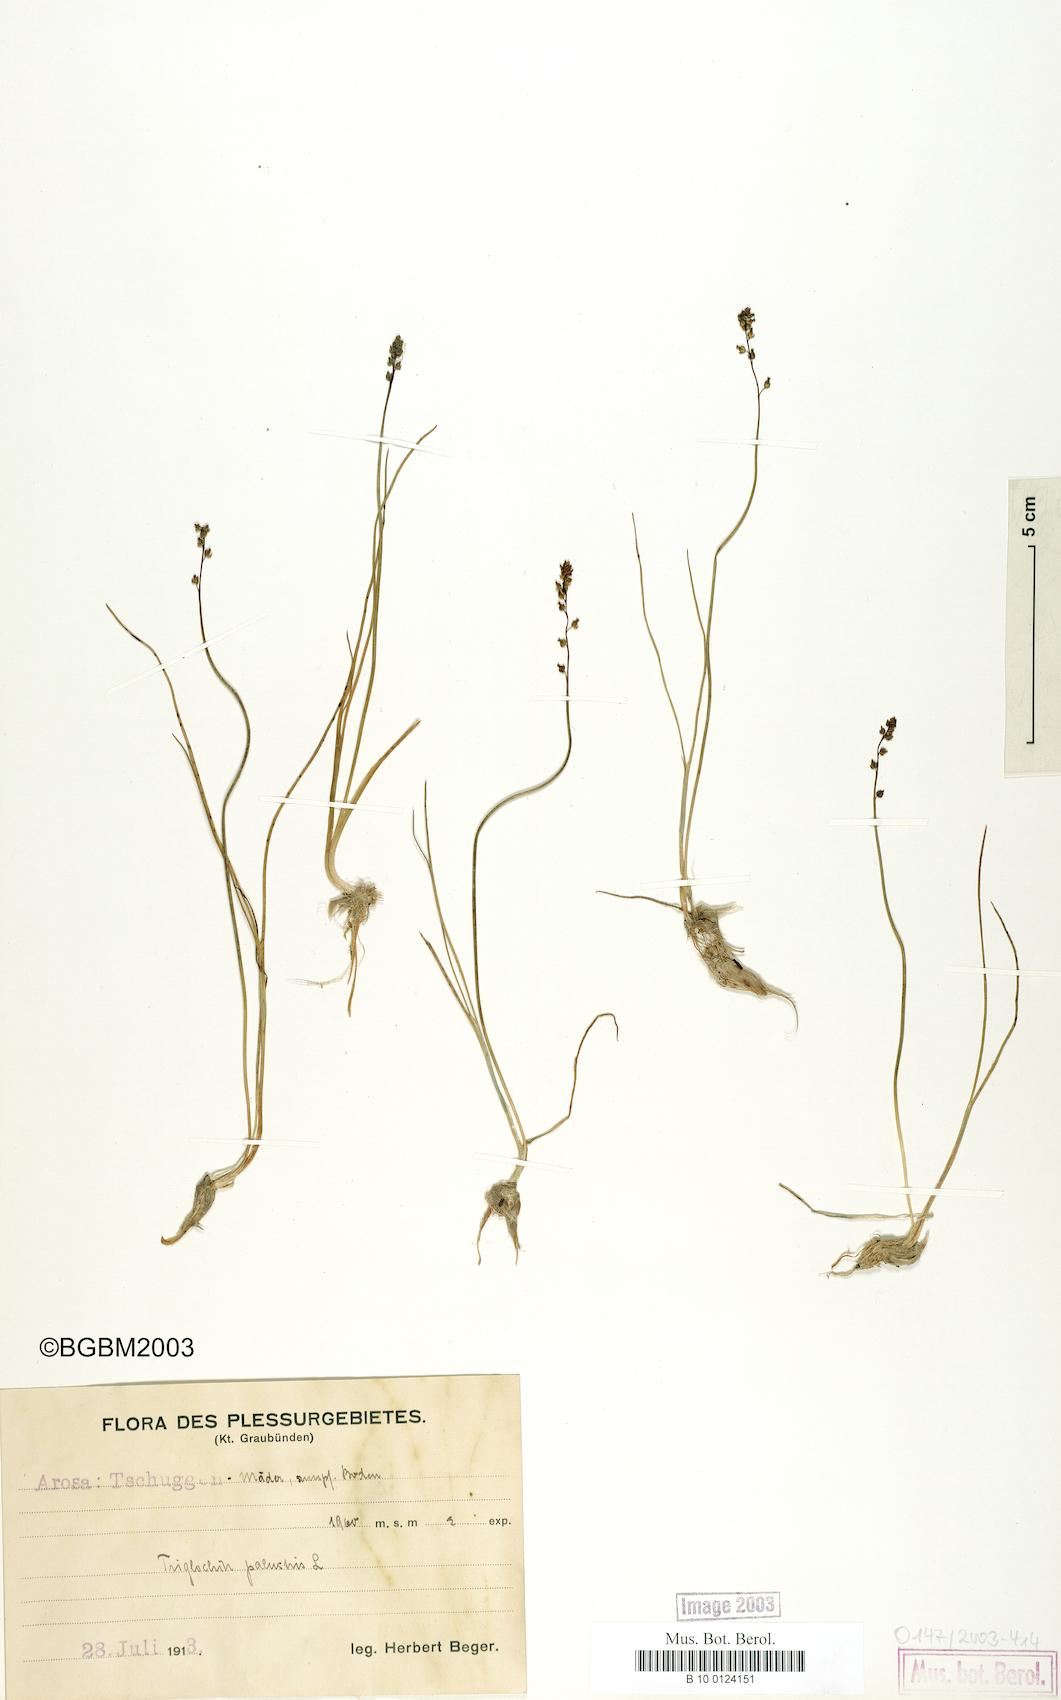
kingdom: Plantae
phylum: Tracheophyta
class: Liliopsida
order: Alismatales
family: Juncaginaceae
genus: Triglochin
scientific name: Triglochin palustris
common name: Marsh arrowgrass
